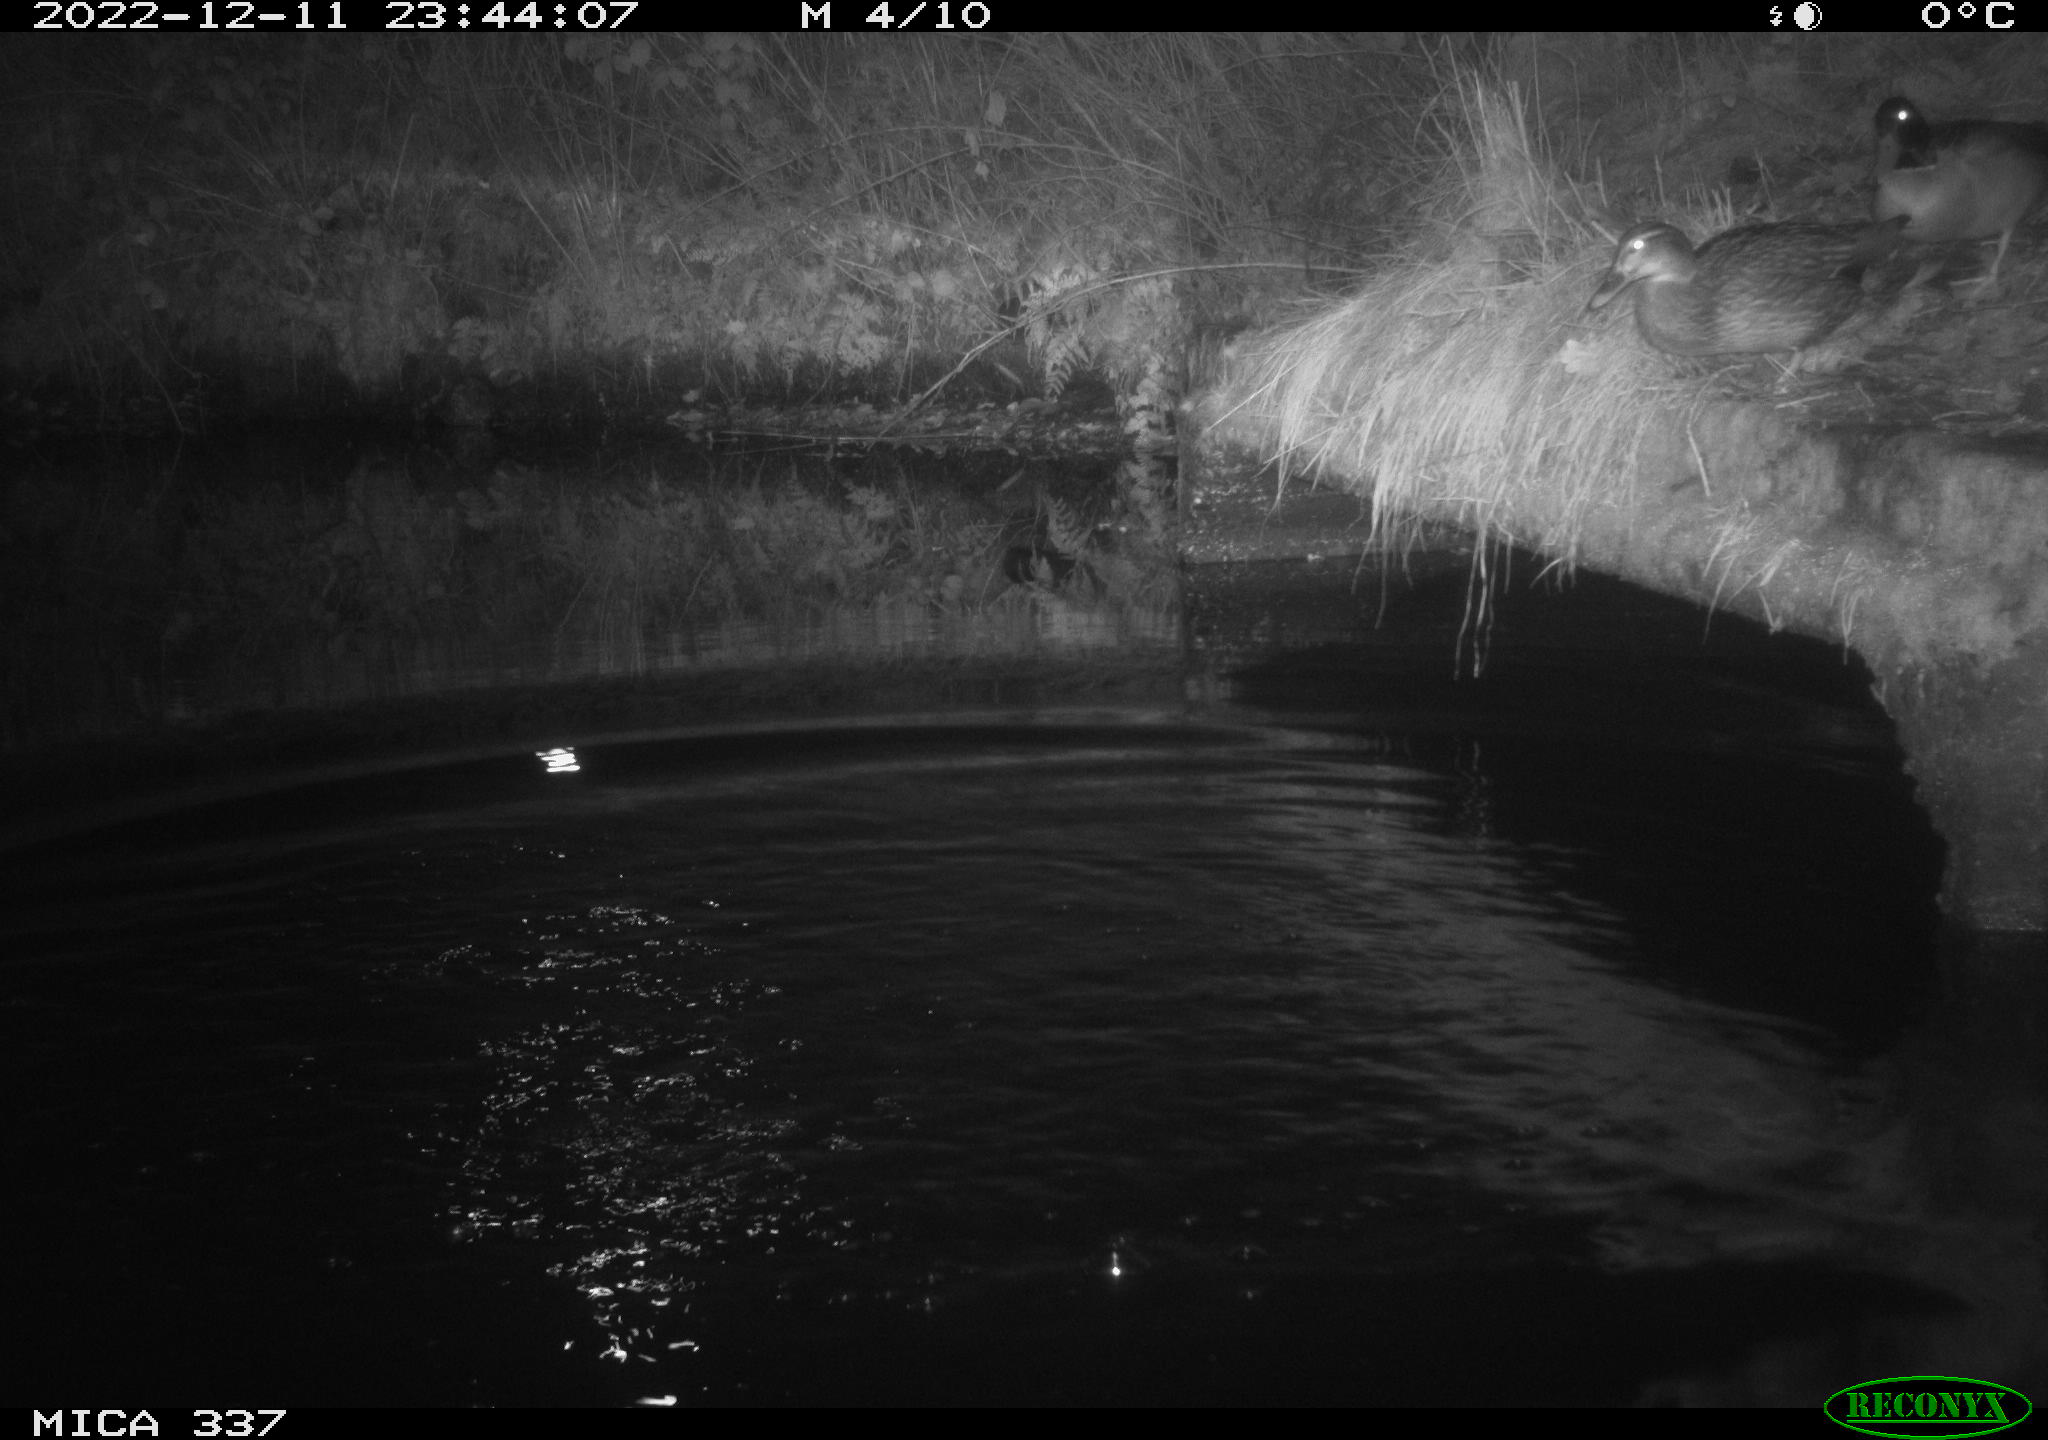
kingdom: Animalia
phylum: Chordata
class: Aves
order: Anseriformes
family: Anatidae
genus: Anas
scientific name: Anas
